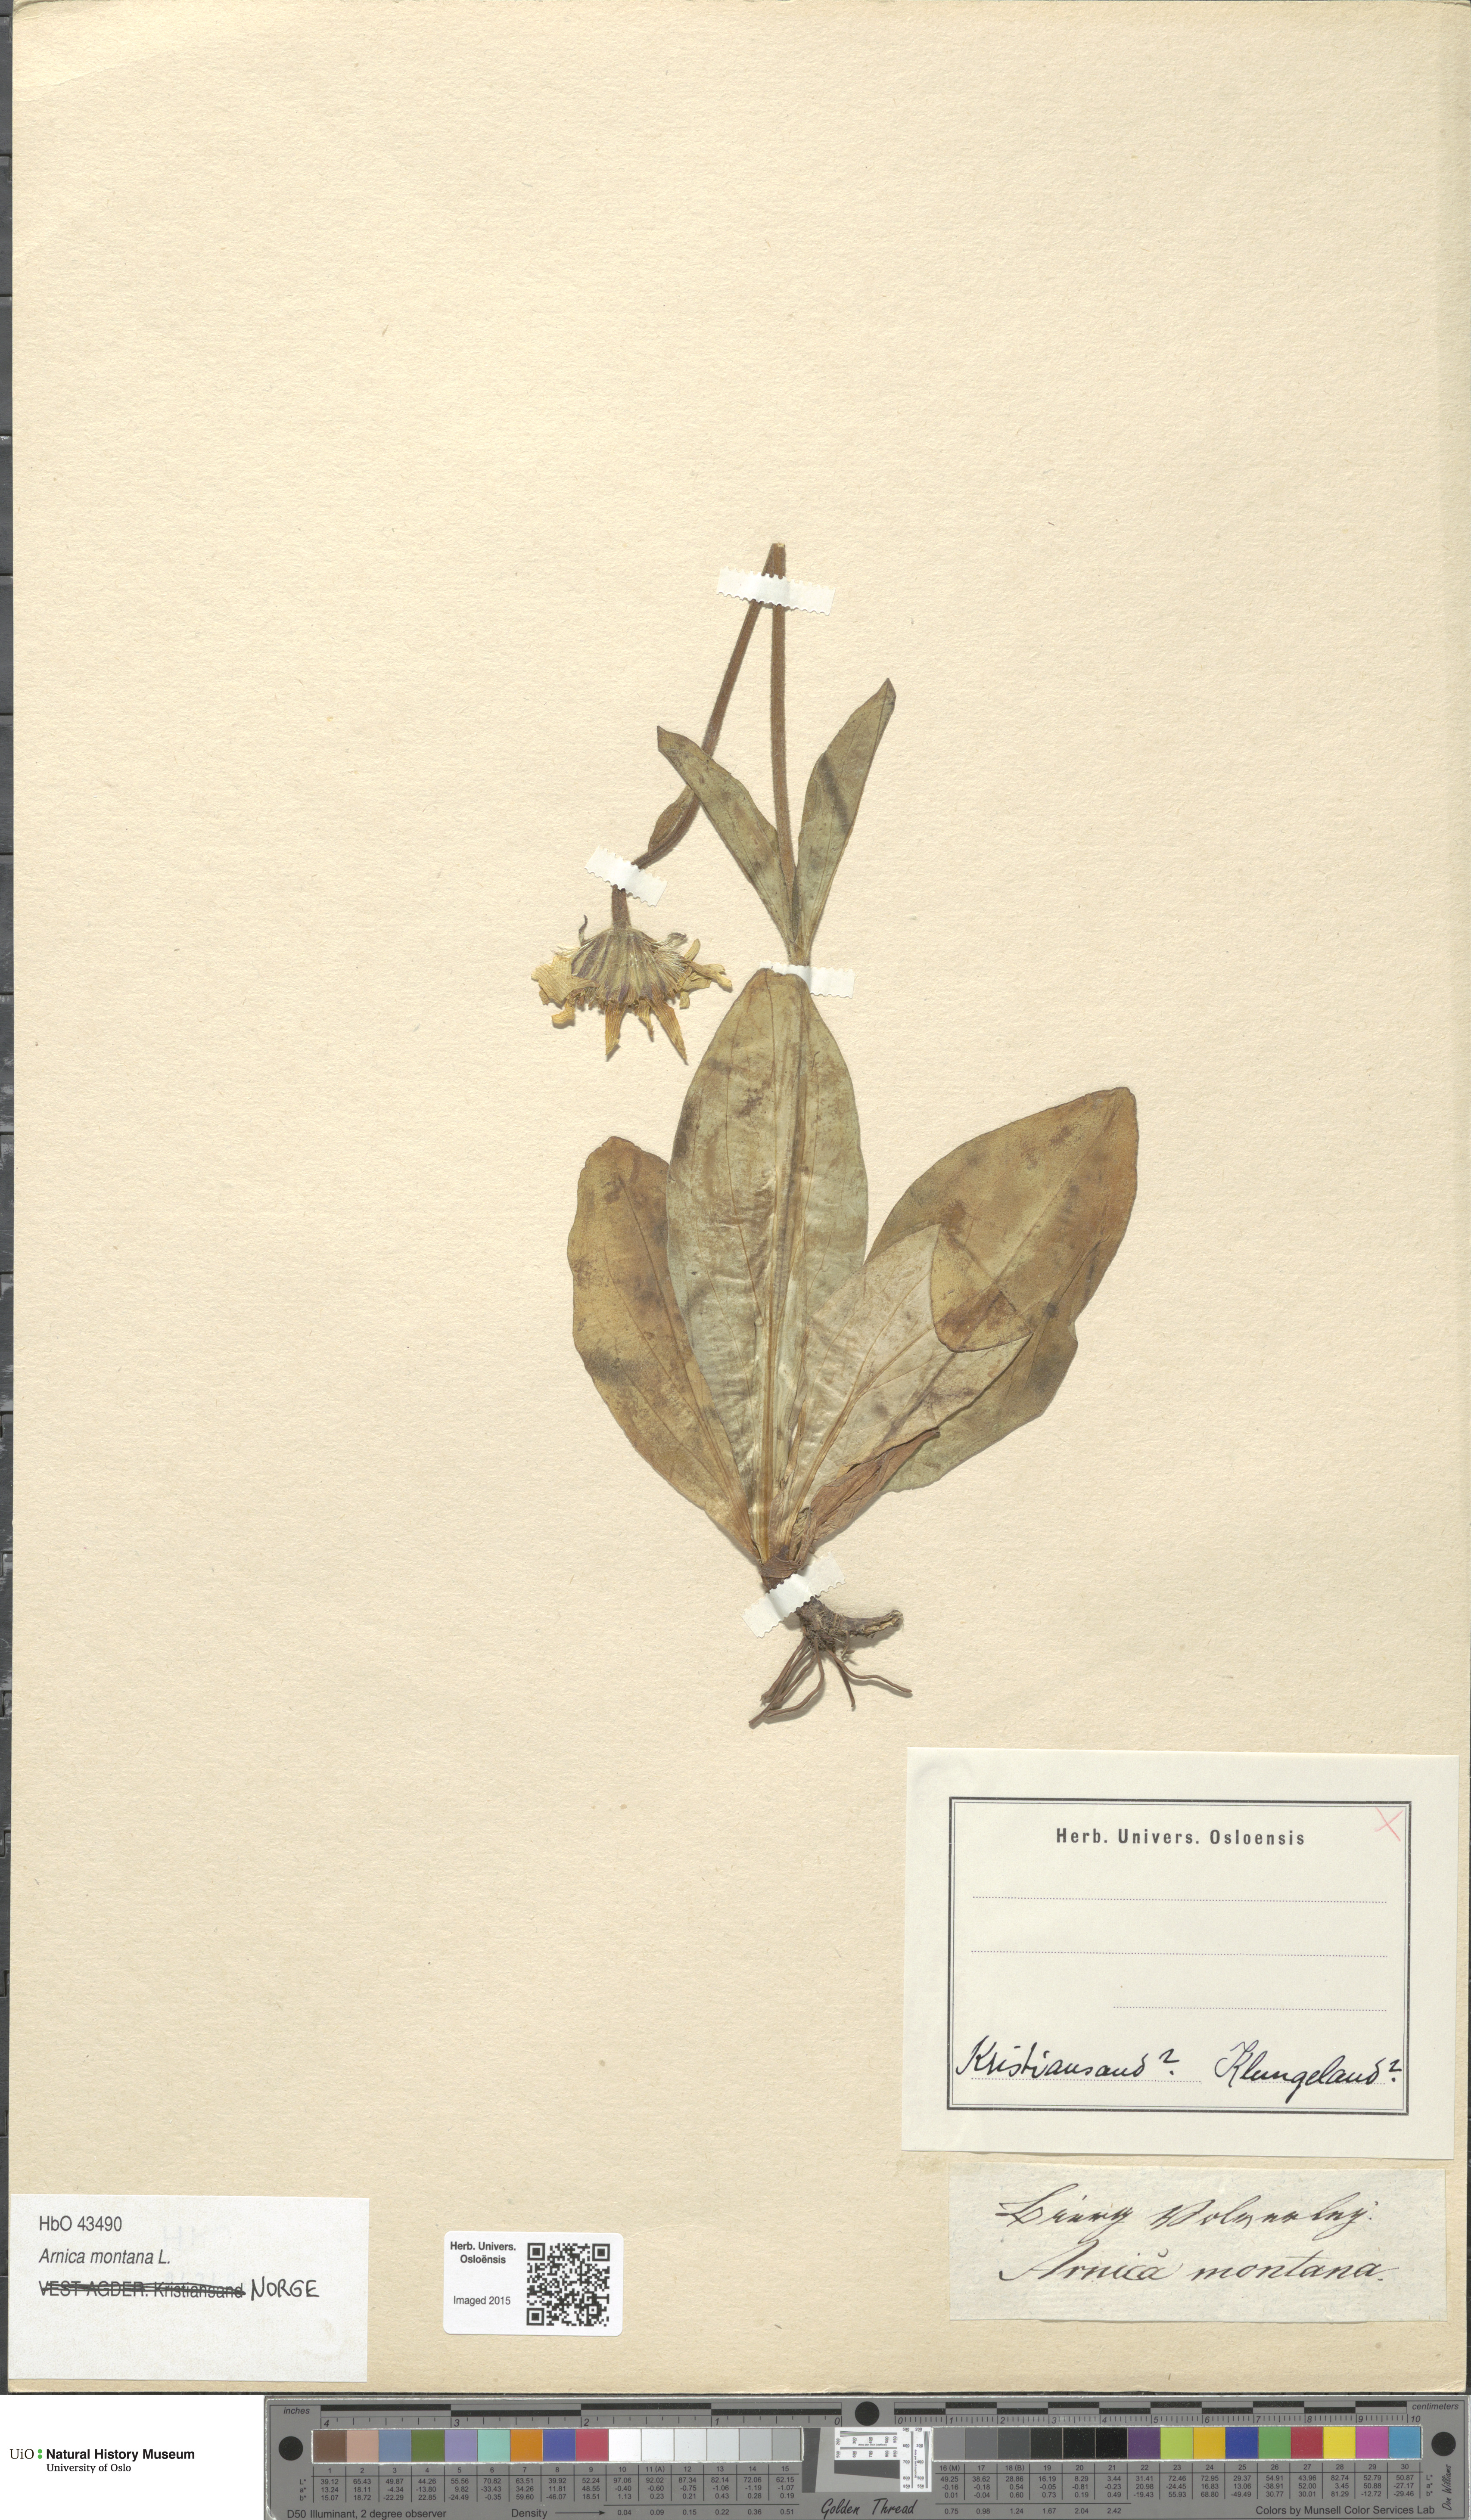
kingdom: Plantae
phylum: Tracheophyta
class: Magnoliopsida
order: Asterales
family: Asteraceae
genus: Arnica
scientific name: Arnica montana
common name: Leopard's bane
